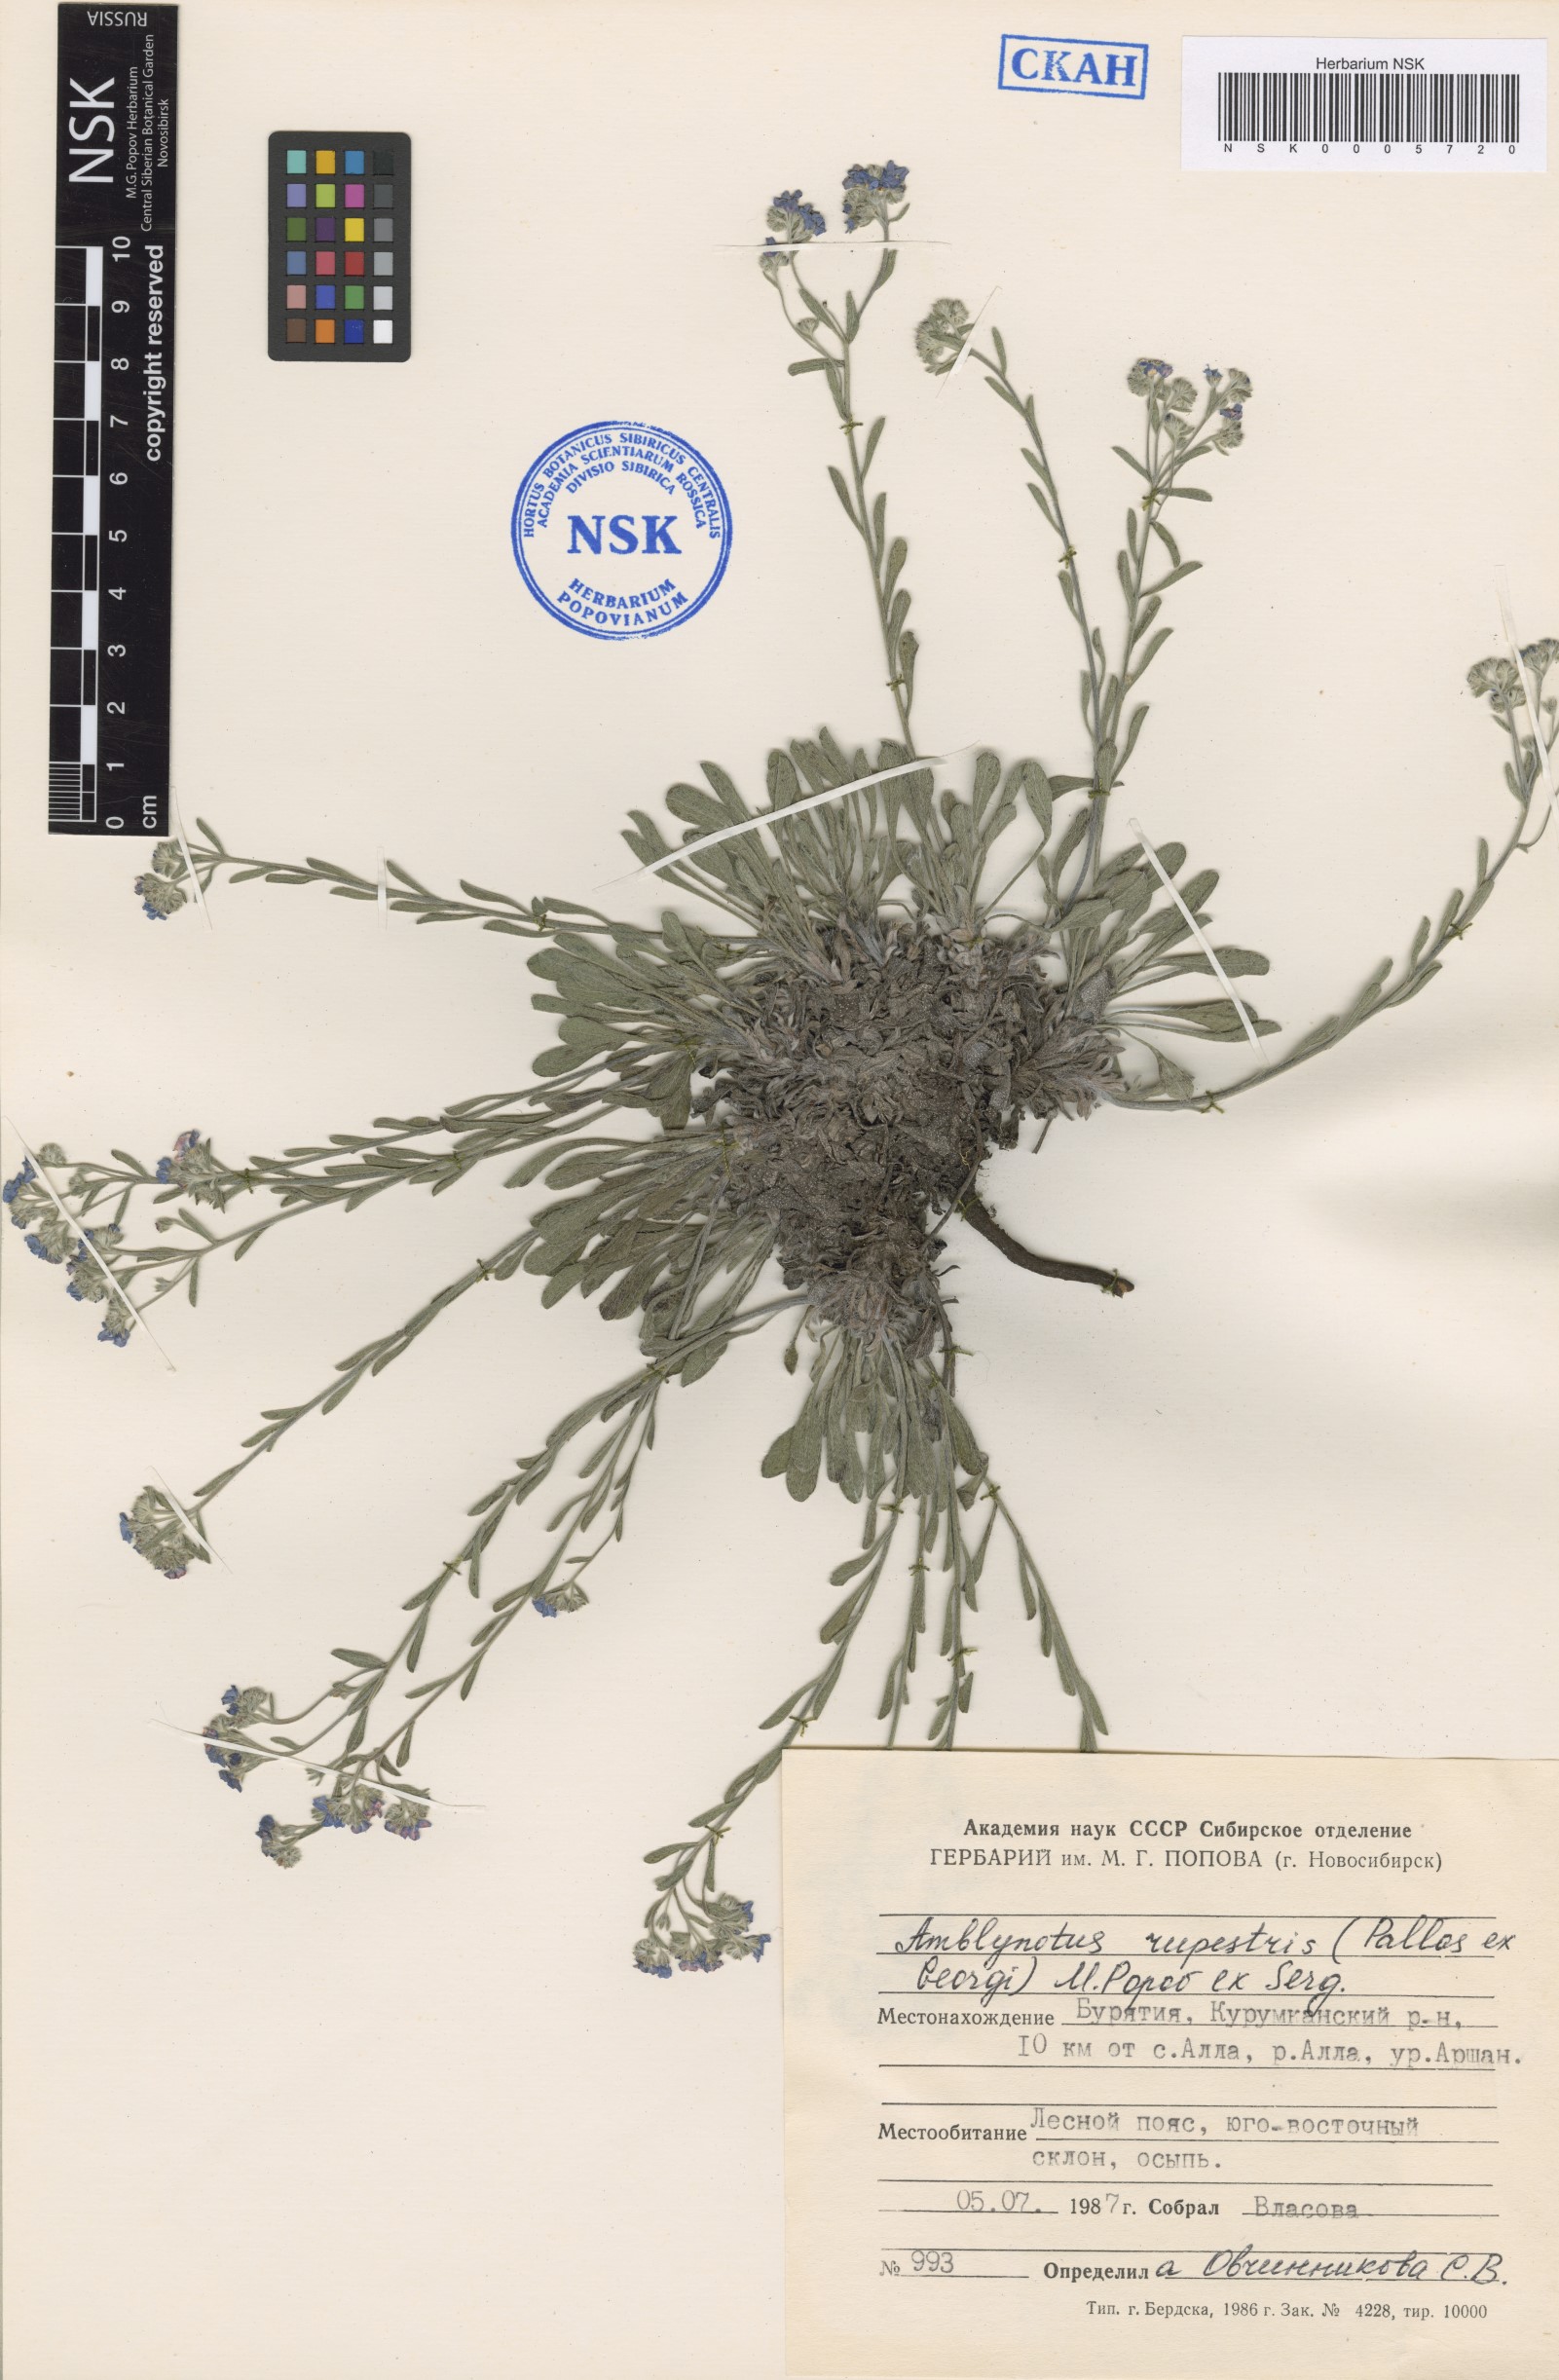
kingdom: Plantae
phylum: Tracheophyta
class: Magnoliopsida
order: Boraginales
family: Boraginaceae
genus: Eritrichium
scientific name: Eritrichium rupestre
